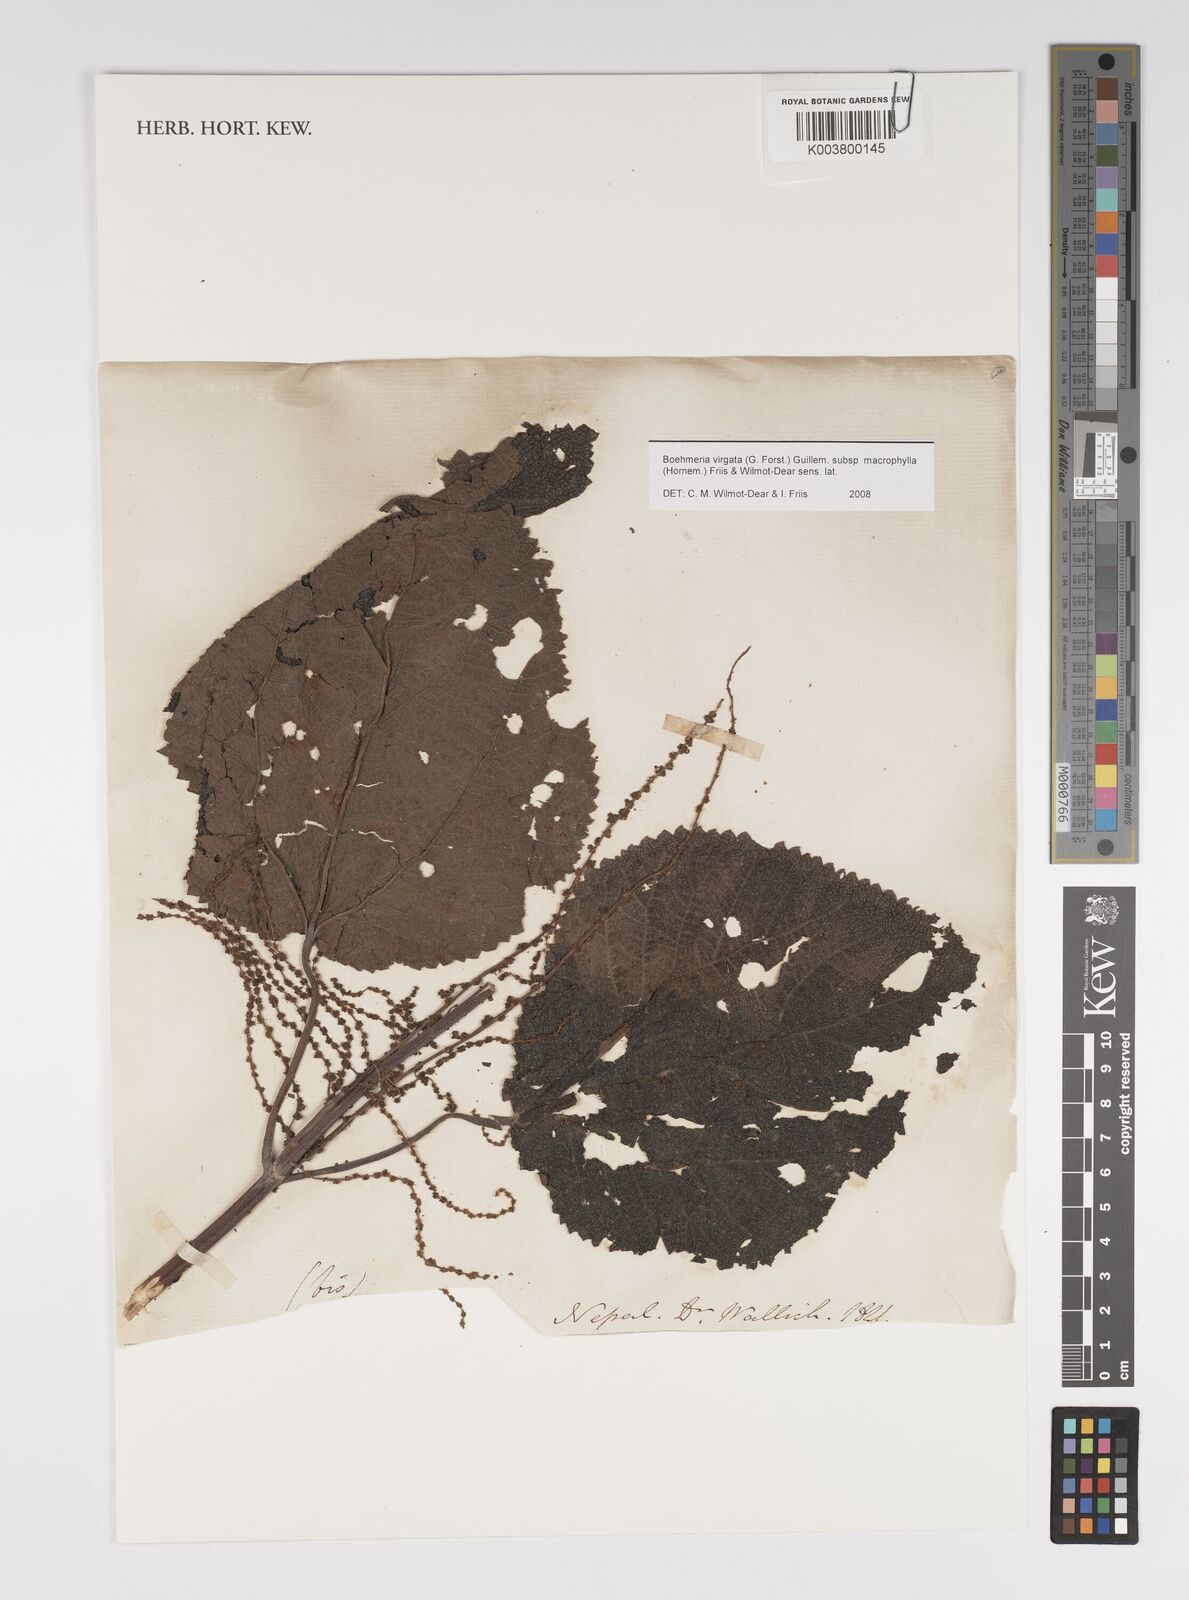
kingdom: Plantae
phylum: Tracheophyta
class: Magnoliopsida
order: Rosales
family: Urticaceae
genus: Boehmeria
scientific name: Boehmeria virgata
